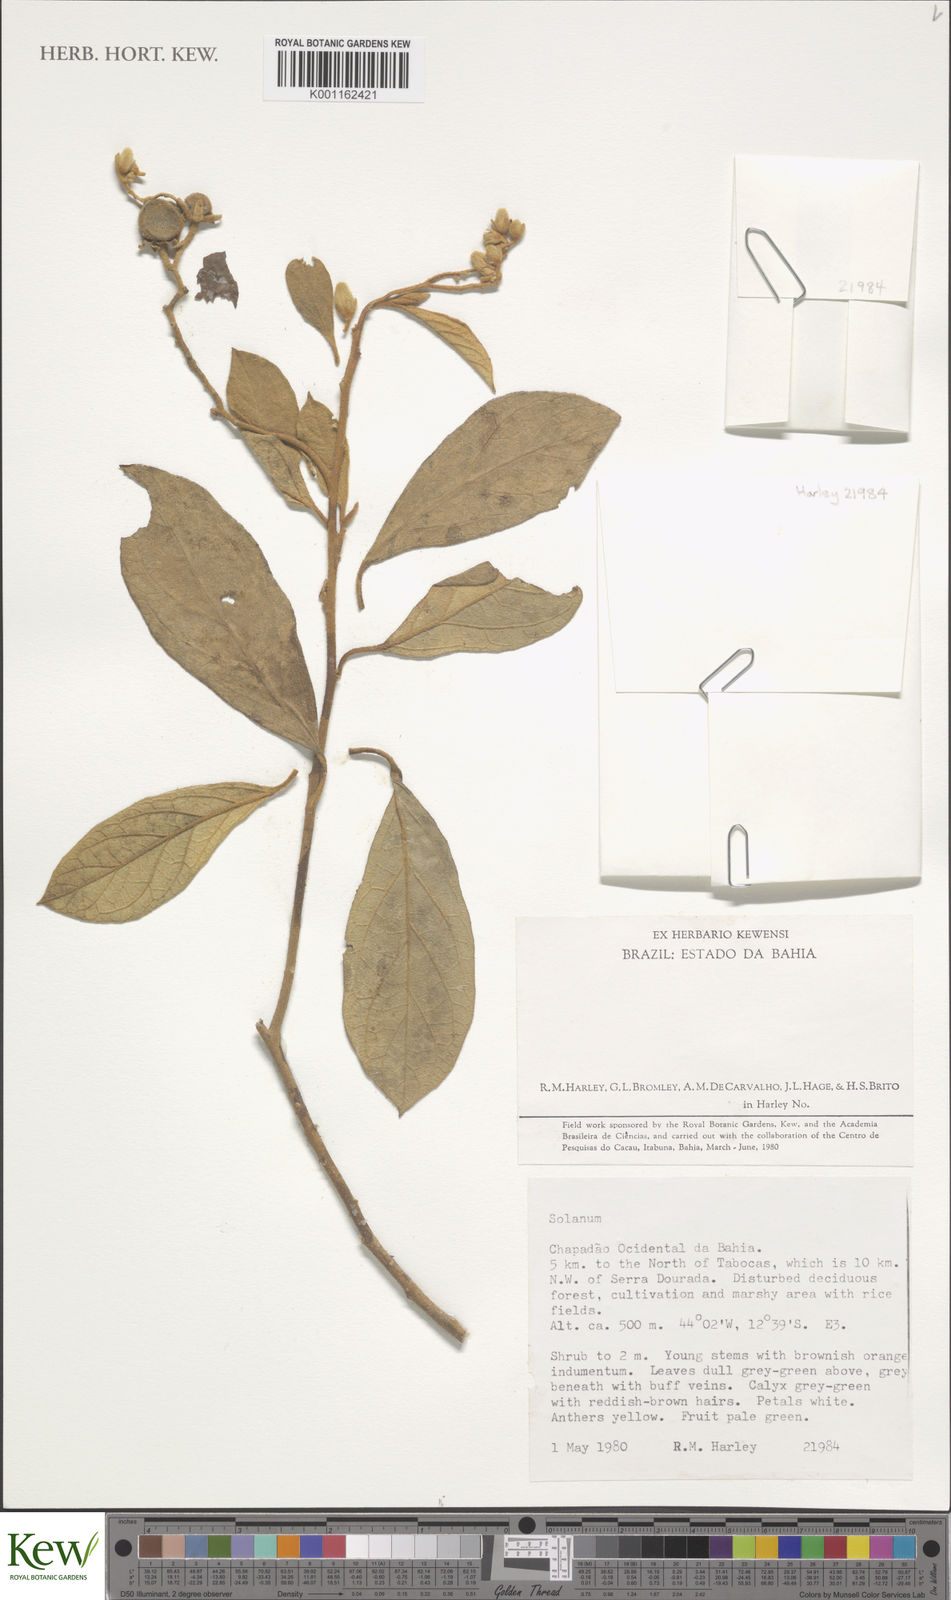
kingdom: Plantae
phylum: Tracheophyta
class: Magnoliopsida
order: Solanales
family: Solanaceae
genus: Solanum
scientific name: Solanum diamantinense
